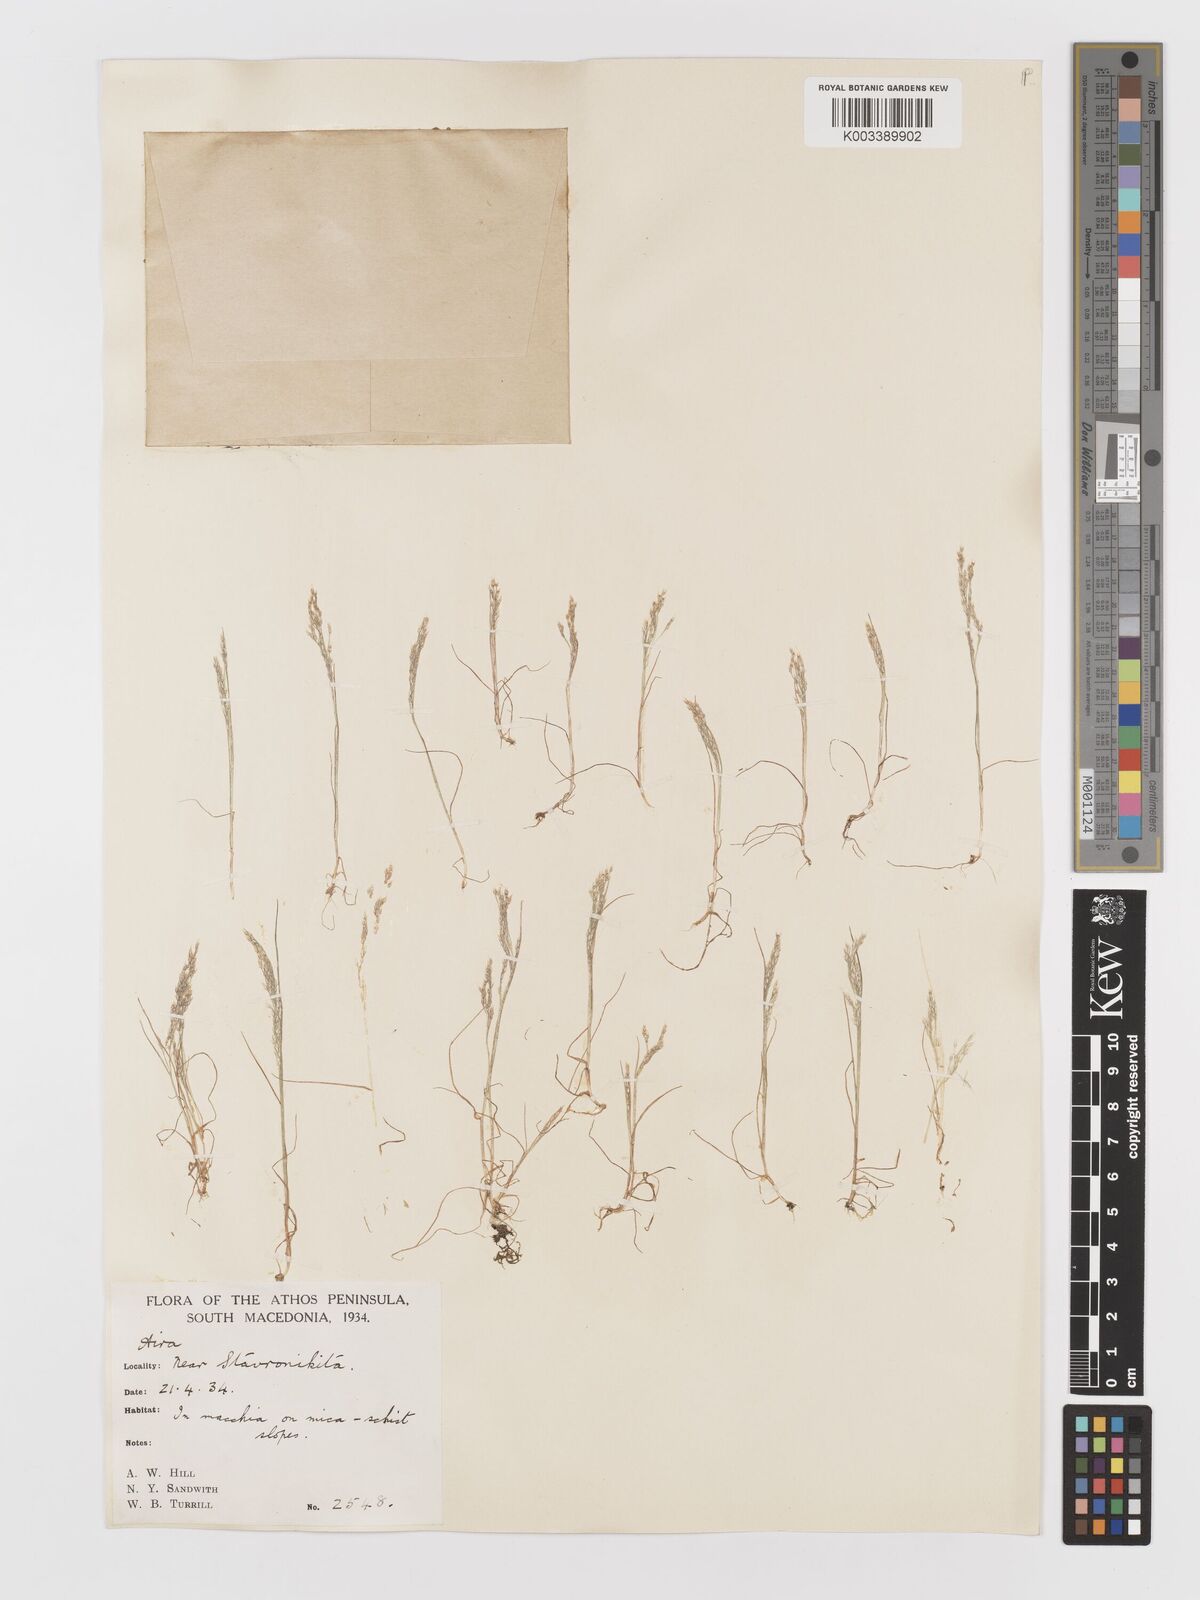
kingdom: Plantae
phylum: Tracheophyta
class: Liliopsida
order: Poales
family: Poaceae
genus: Aira
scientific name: Aira elegans
